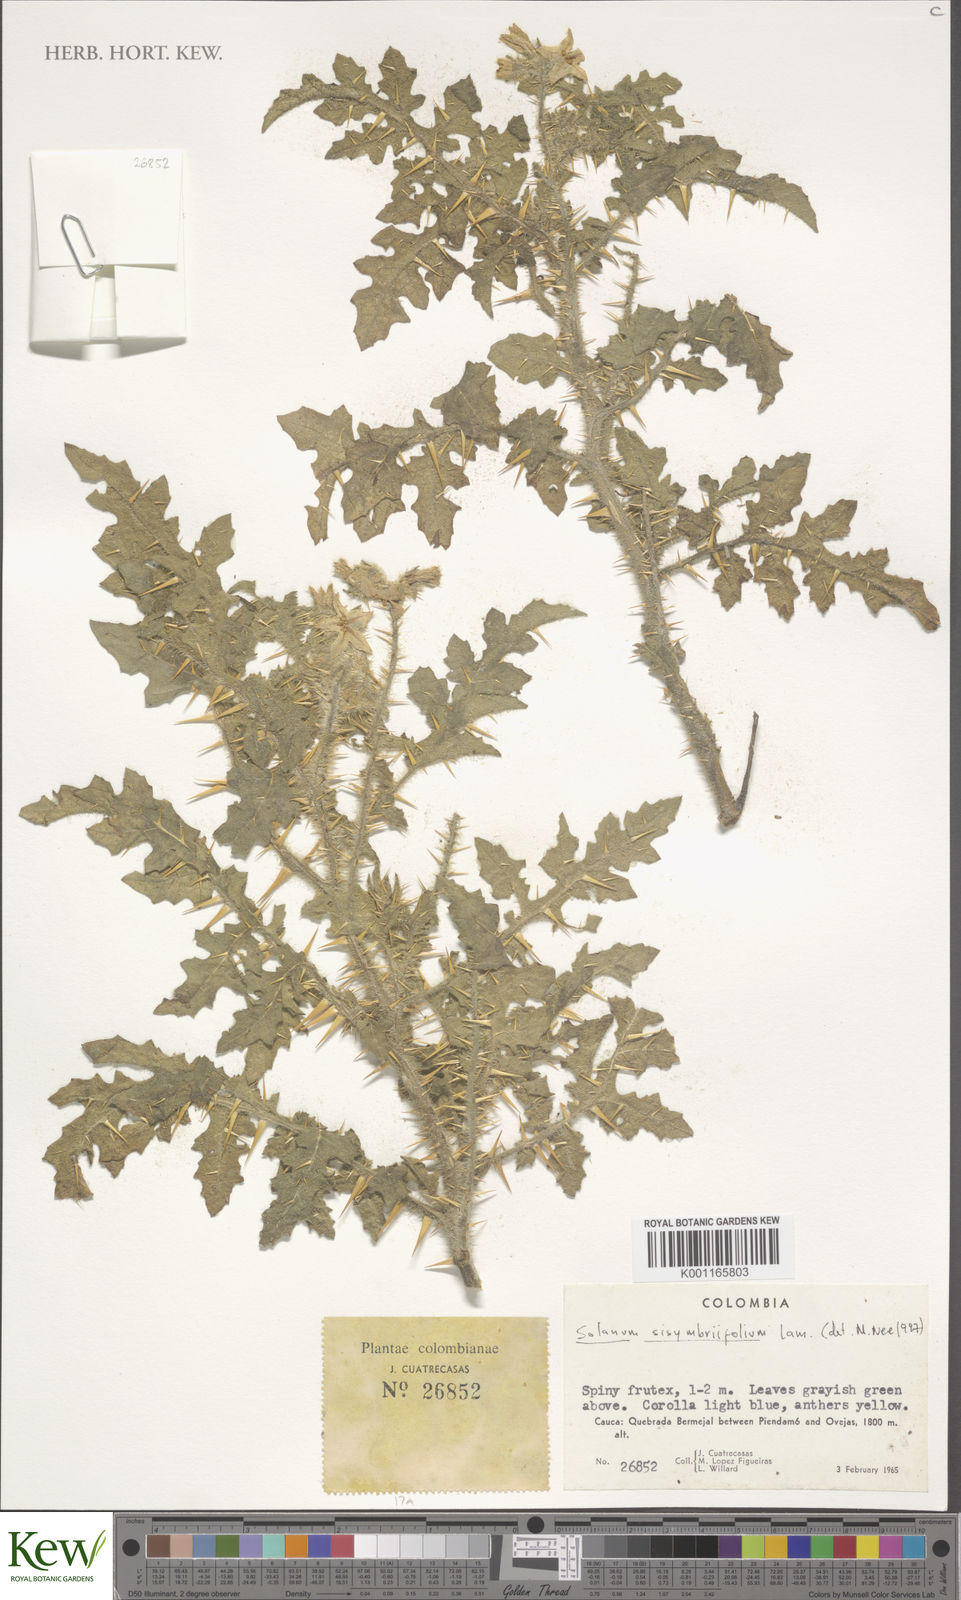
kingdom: Plantae
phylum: Tracheophyta
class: Magnoliopsida
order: Solanales
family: Solanaceae
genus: Solanum
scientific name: Solanum sisymbriifolium
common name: Red buffalo-bur
